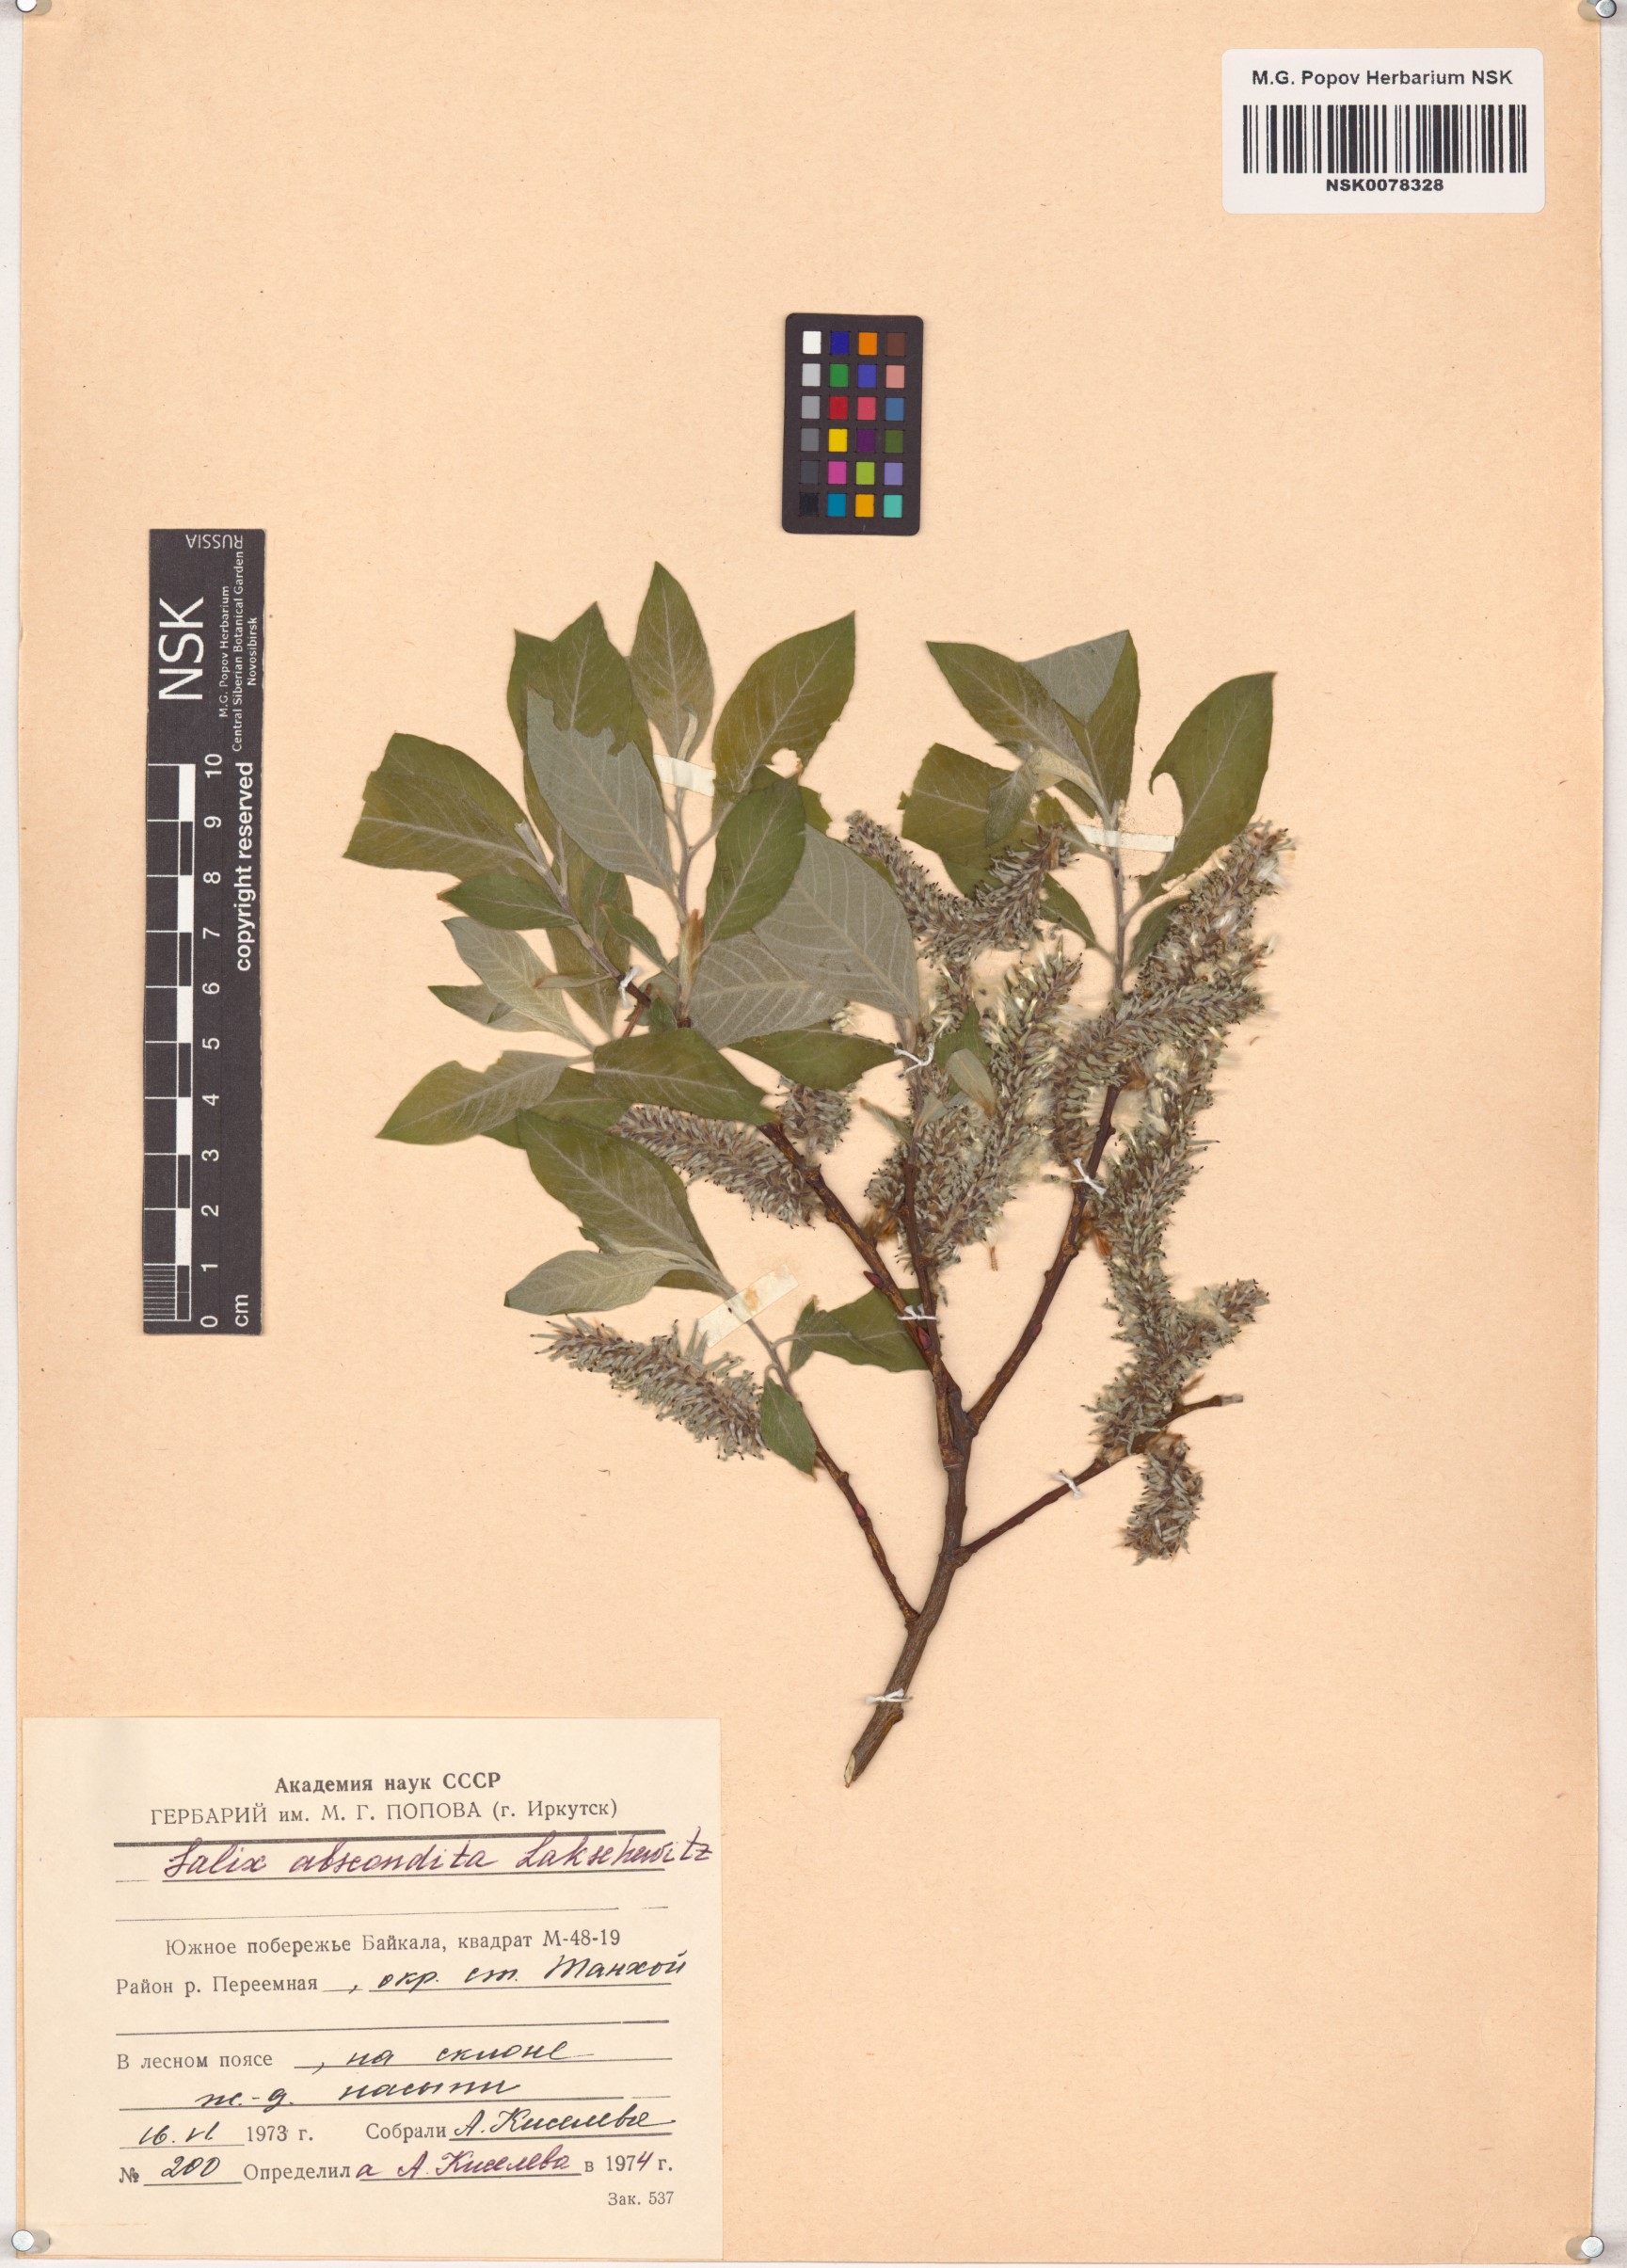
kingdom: Plantae
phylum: Tracheophyta
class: Magnoliopsida
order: Malpighiales
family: Salicaceae
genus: Salix
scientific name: Salix abscondita
